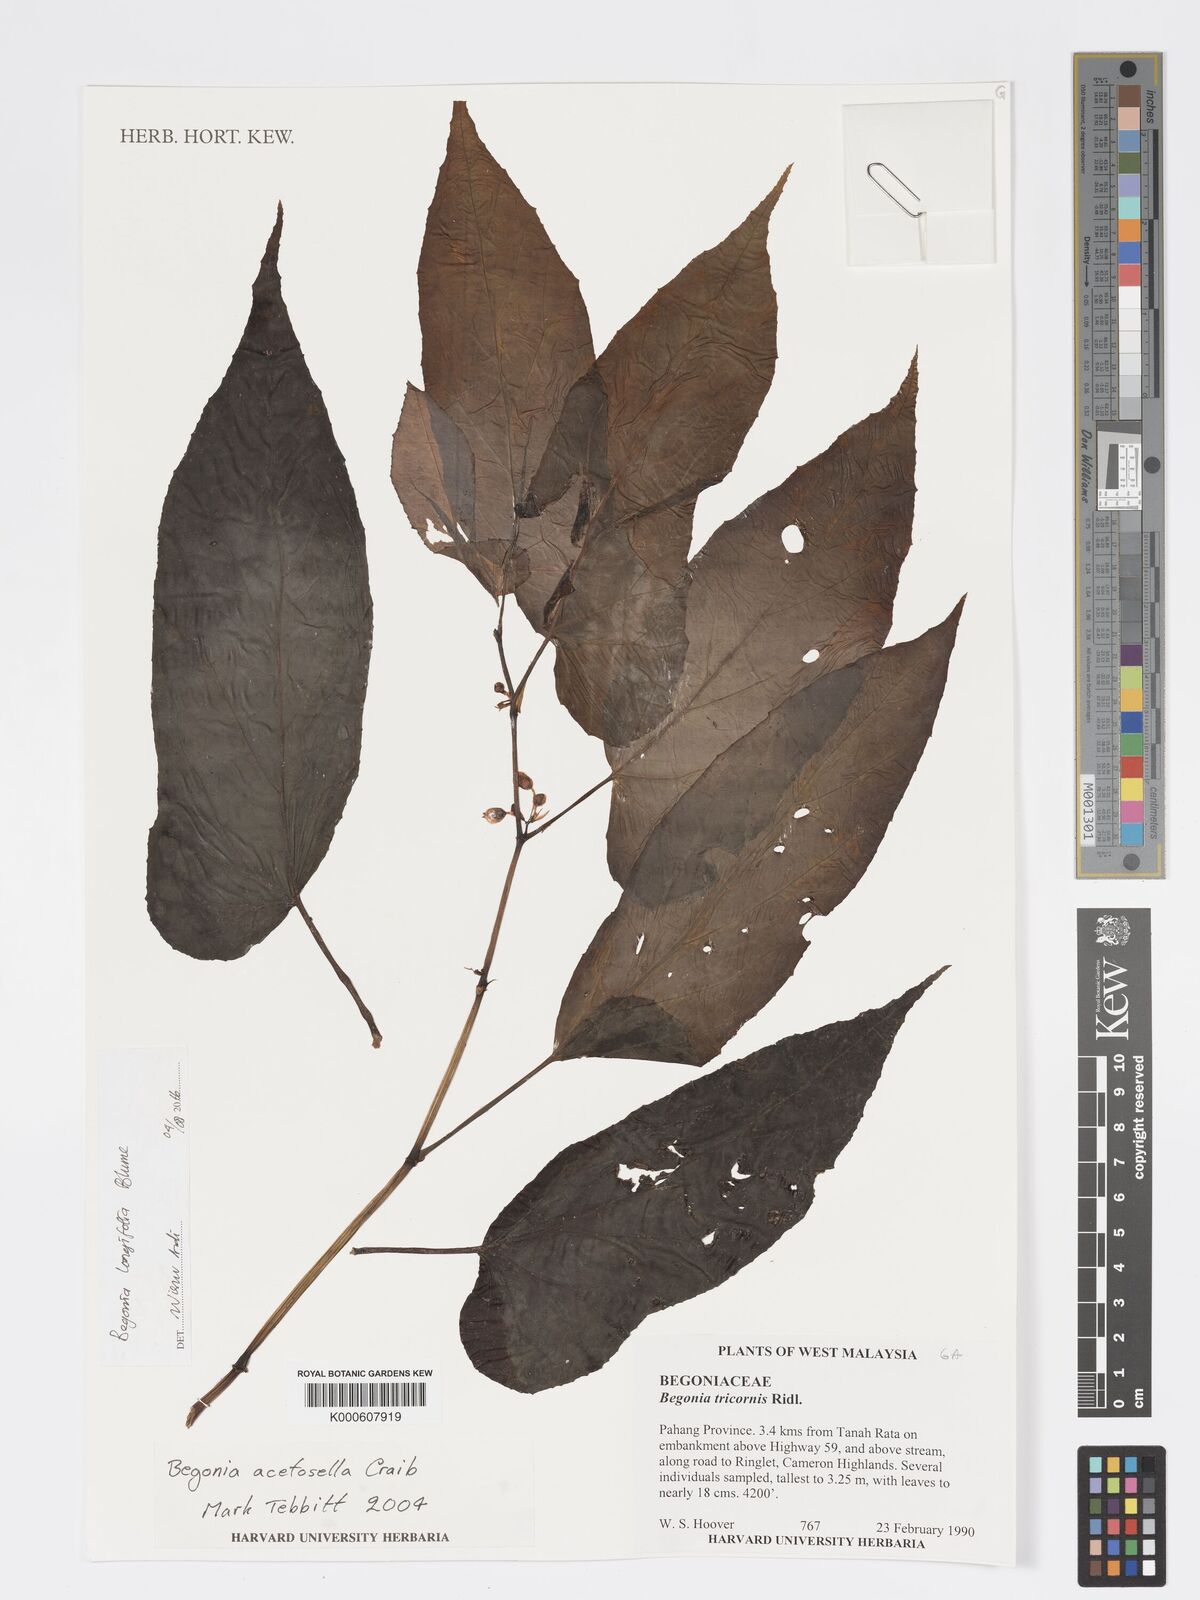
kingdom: Plantae
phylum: Tracheophyta
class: Magnoliopsida
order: Cucurbitales
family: Begoniaceae
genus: Begonia
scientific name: Begonia longifolia
